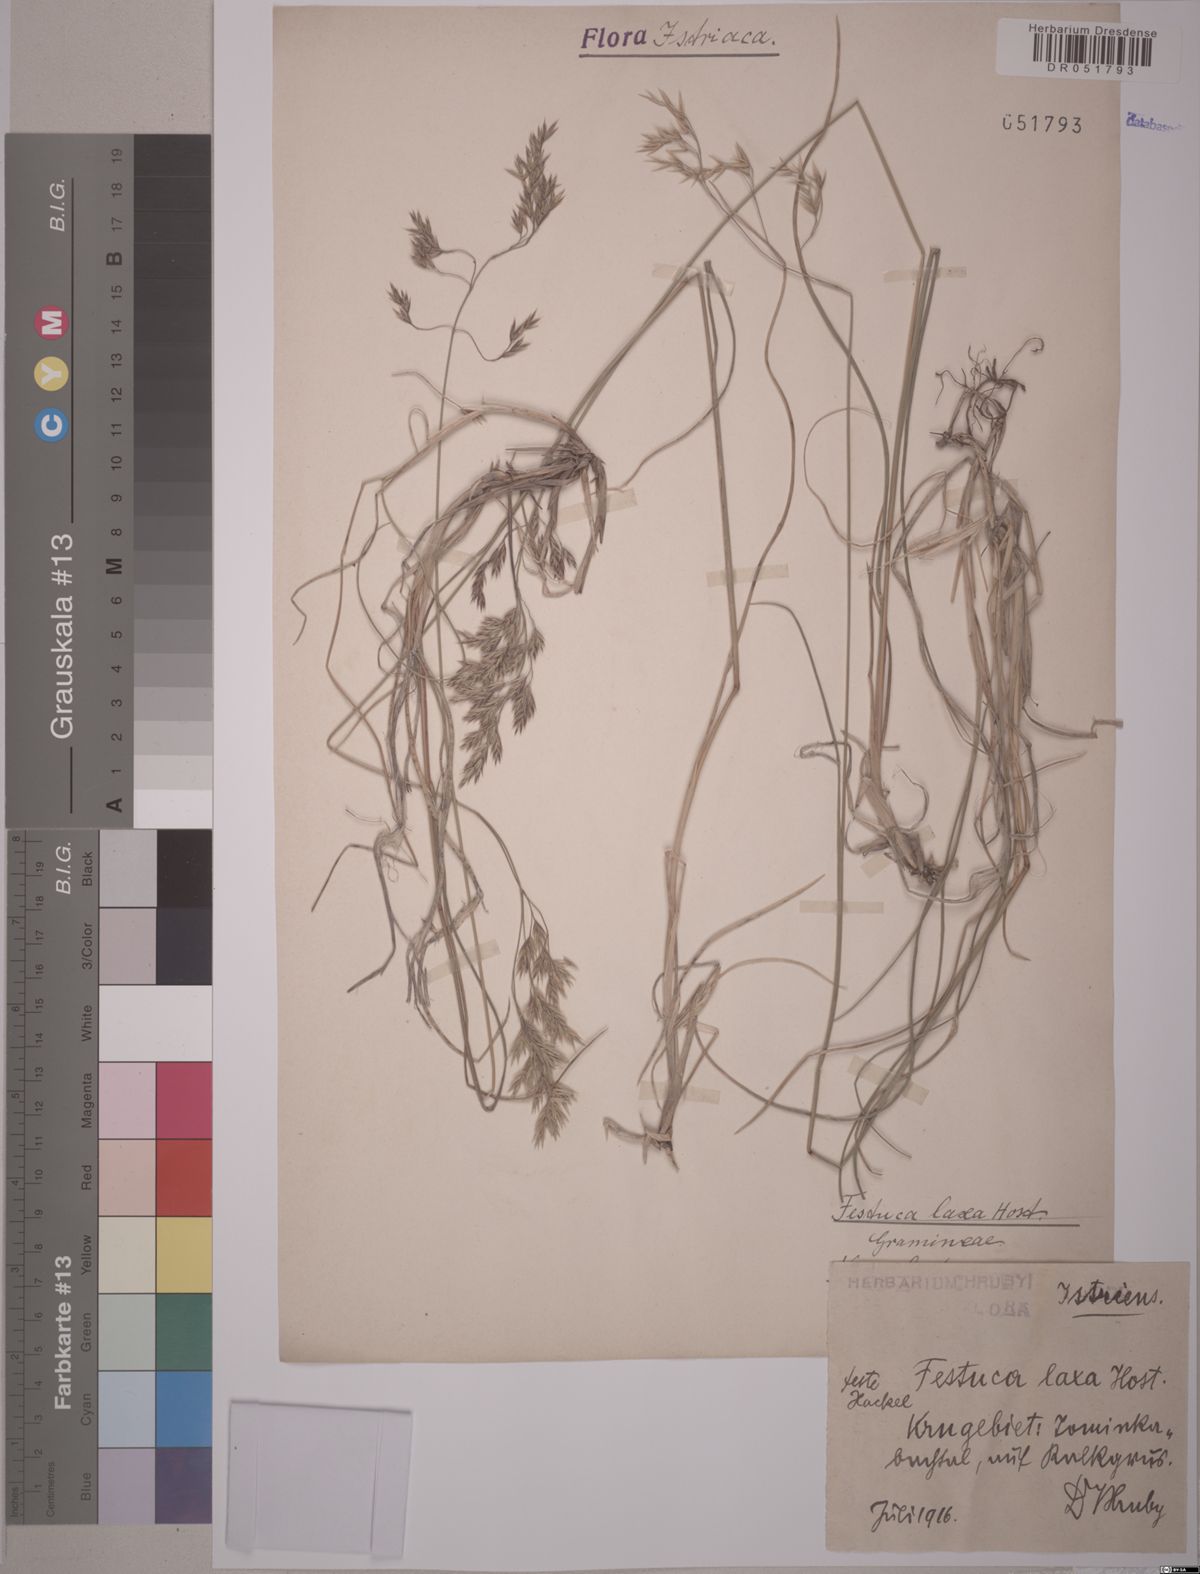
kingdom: Plantae
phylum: Tracheophyta
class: Liliopsida
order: Poales
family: Poaceae
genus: Festuca
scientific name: Festuca laxa
